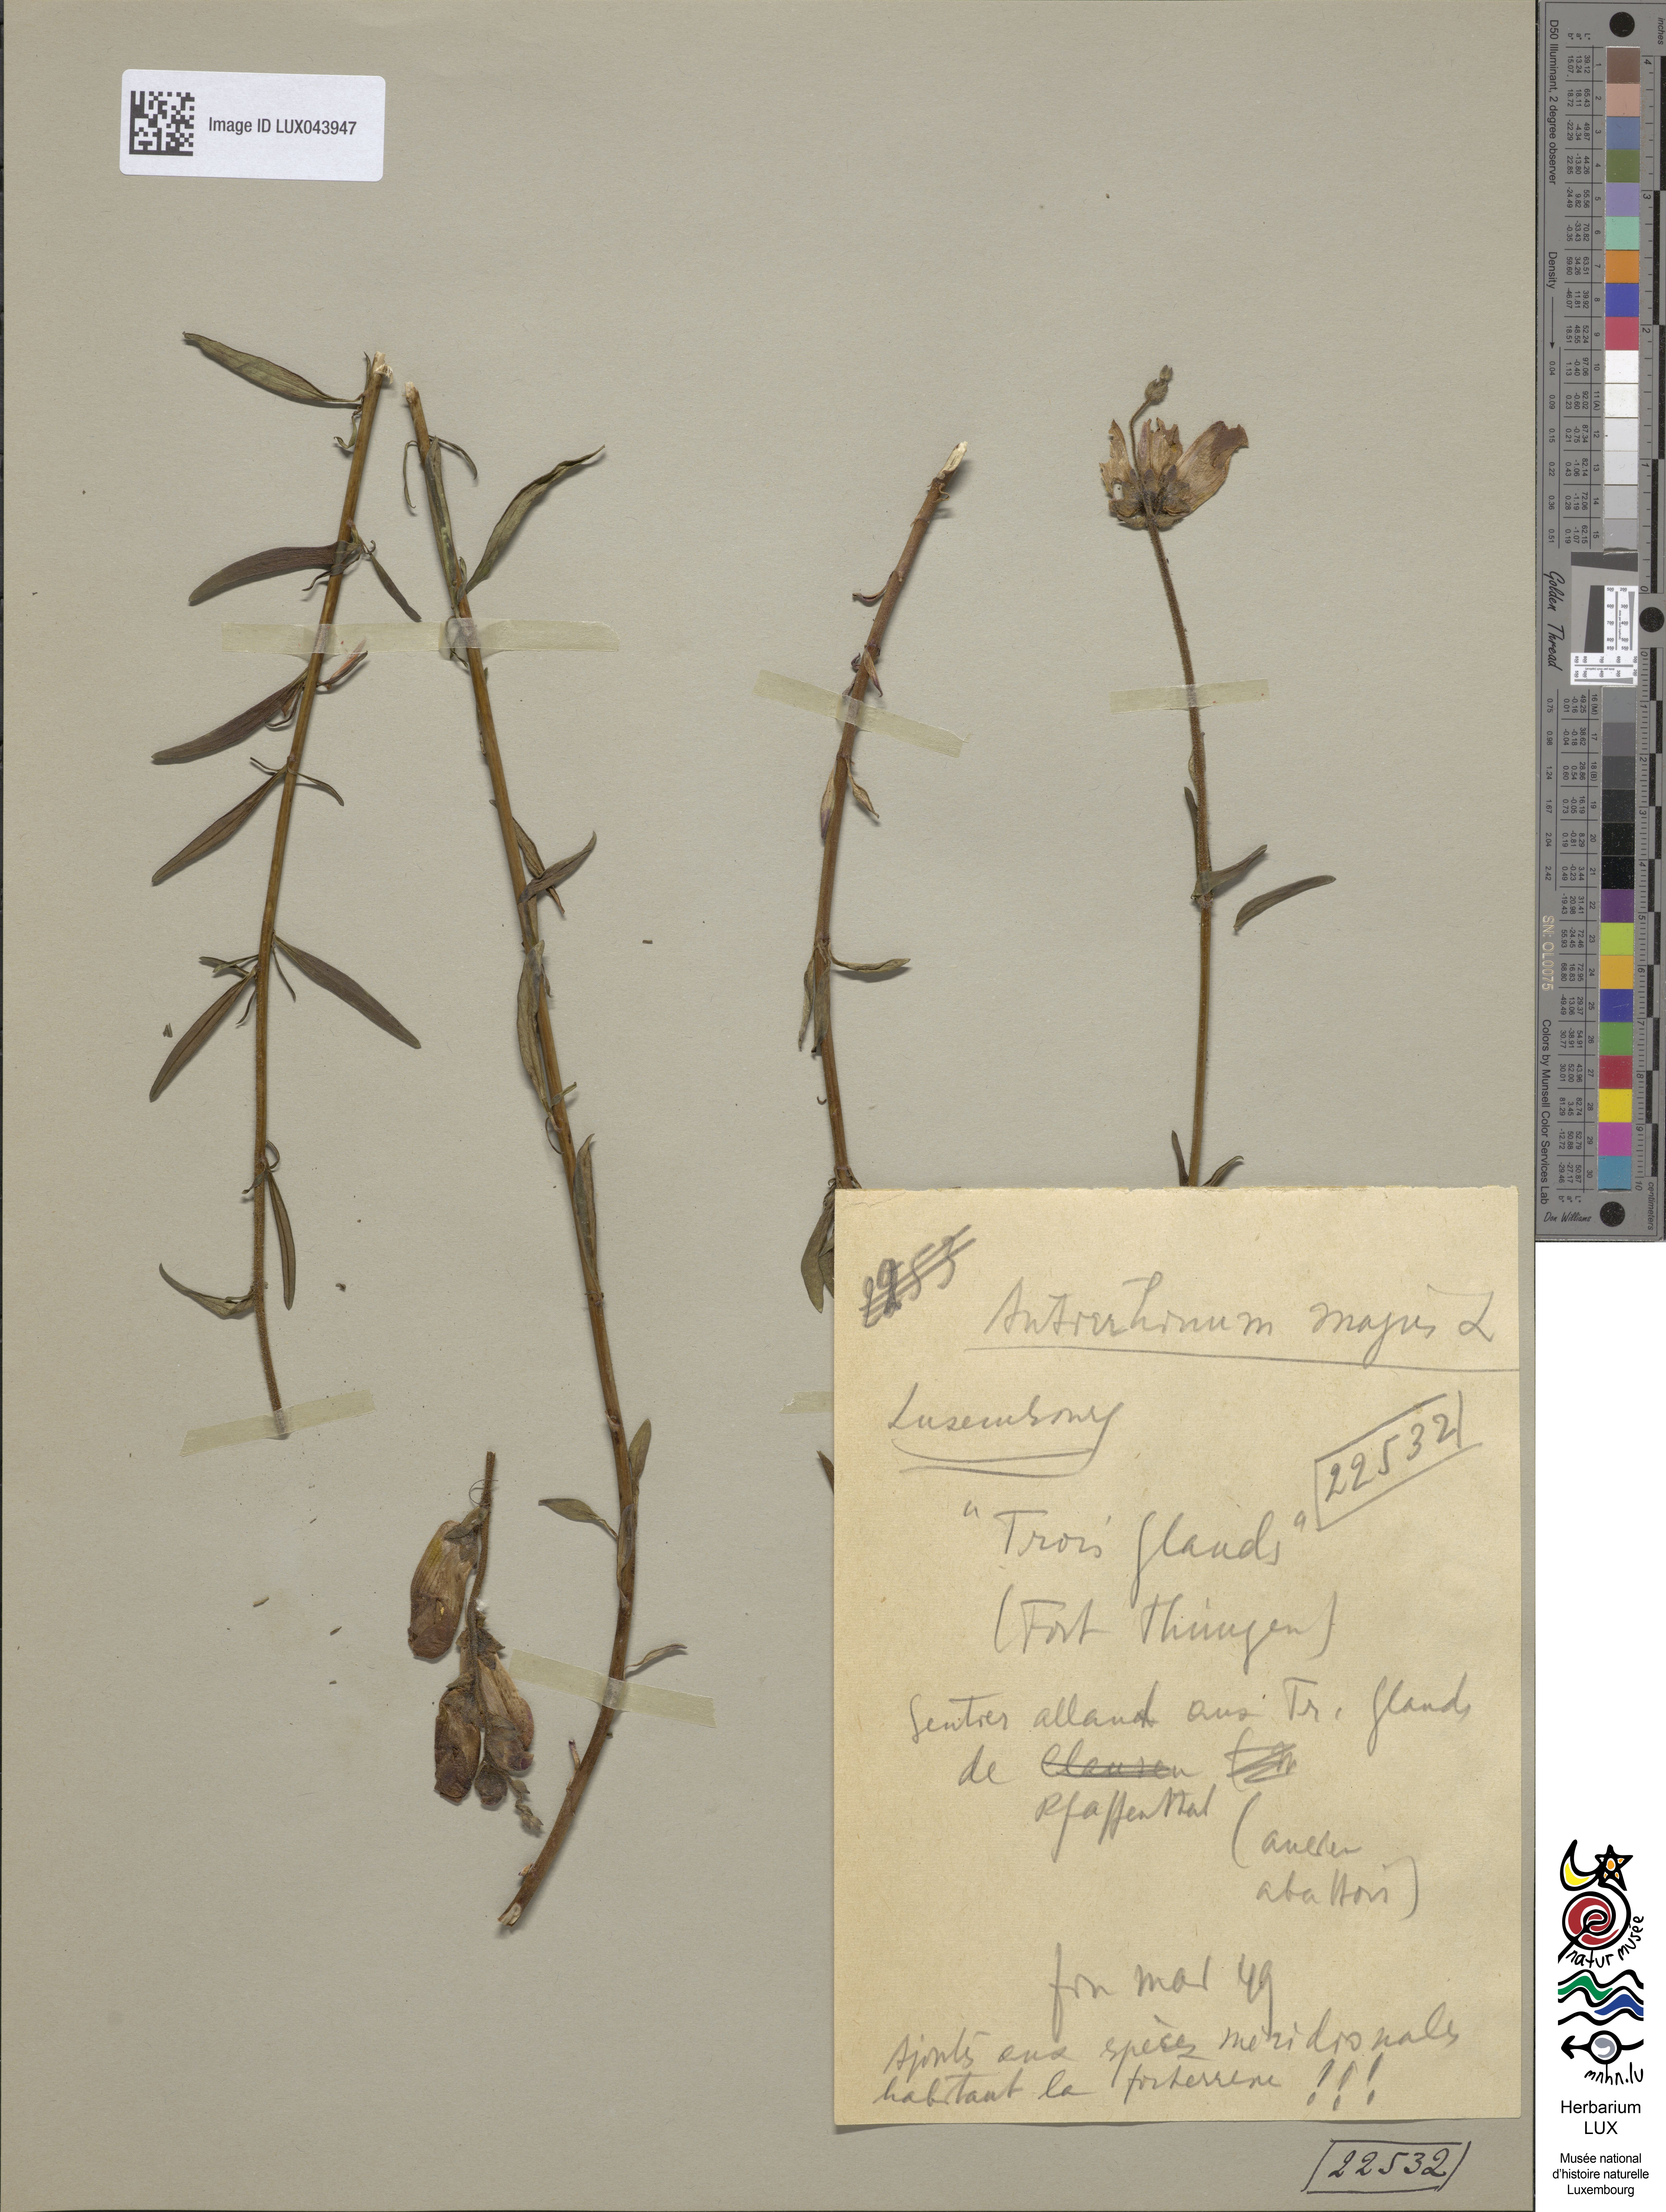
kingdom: Plantae
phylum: Tracheophyta
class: Magnoliopsida
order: Lamiales
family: Plantaginaceae
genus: Antirrhinum
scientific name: Antirrhinum majus
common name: Snapdragon
